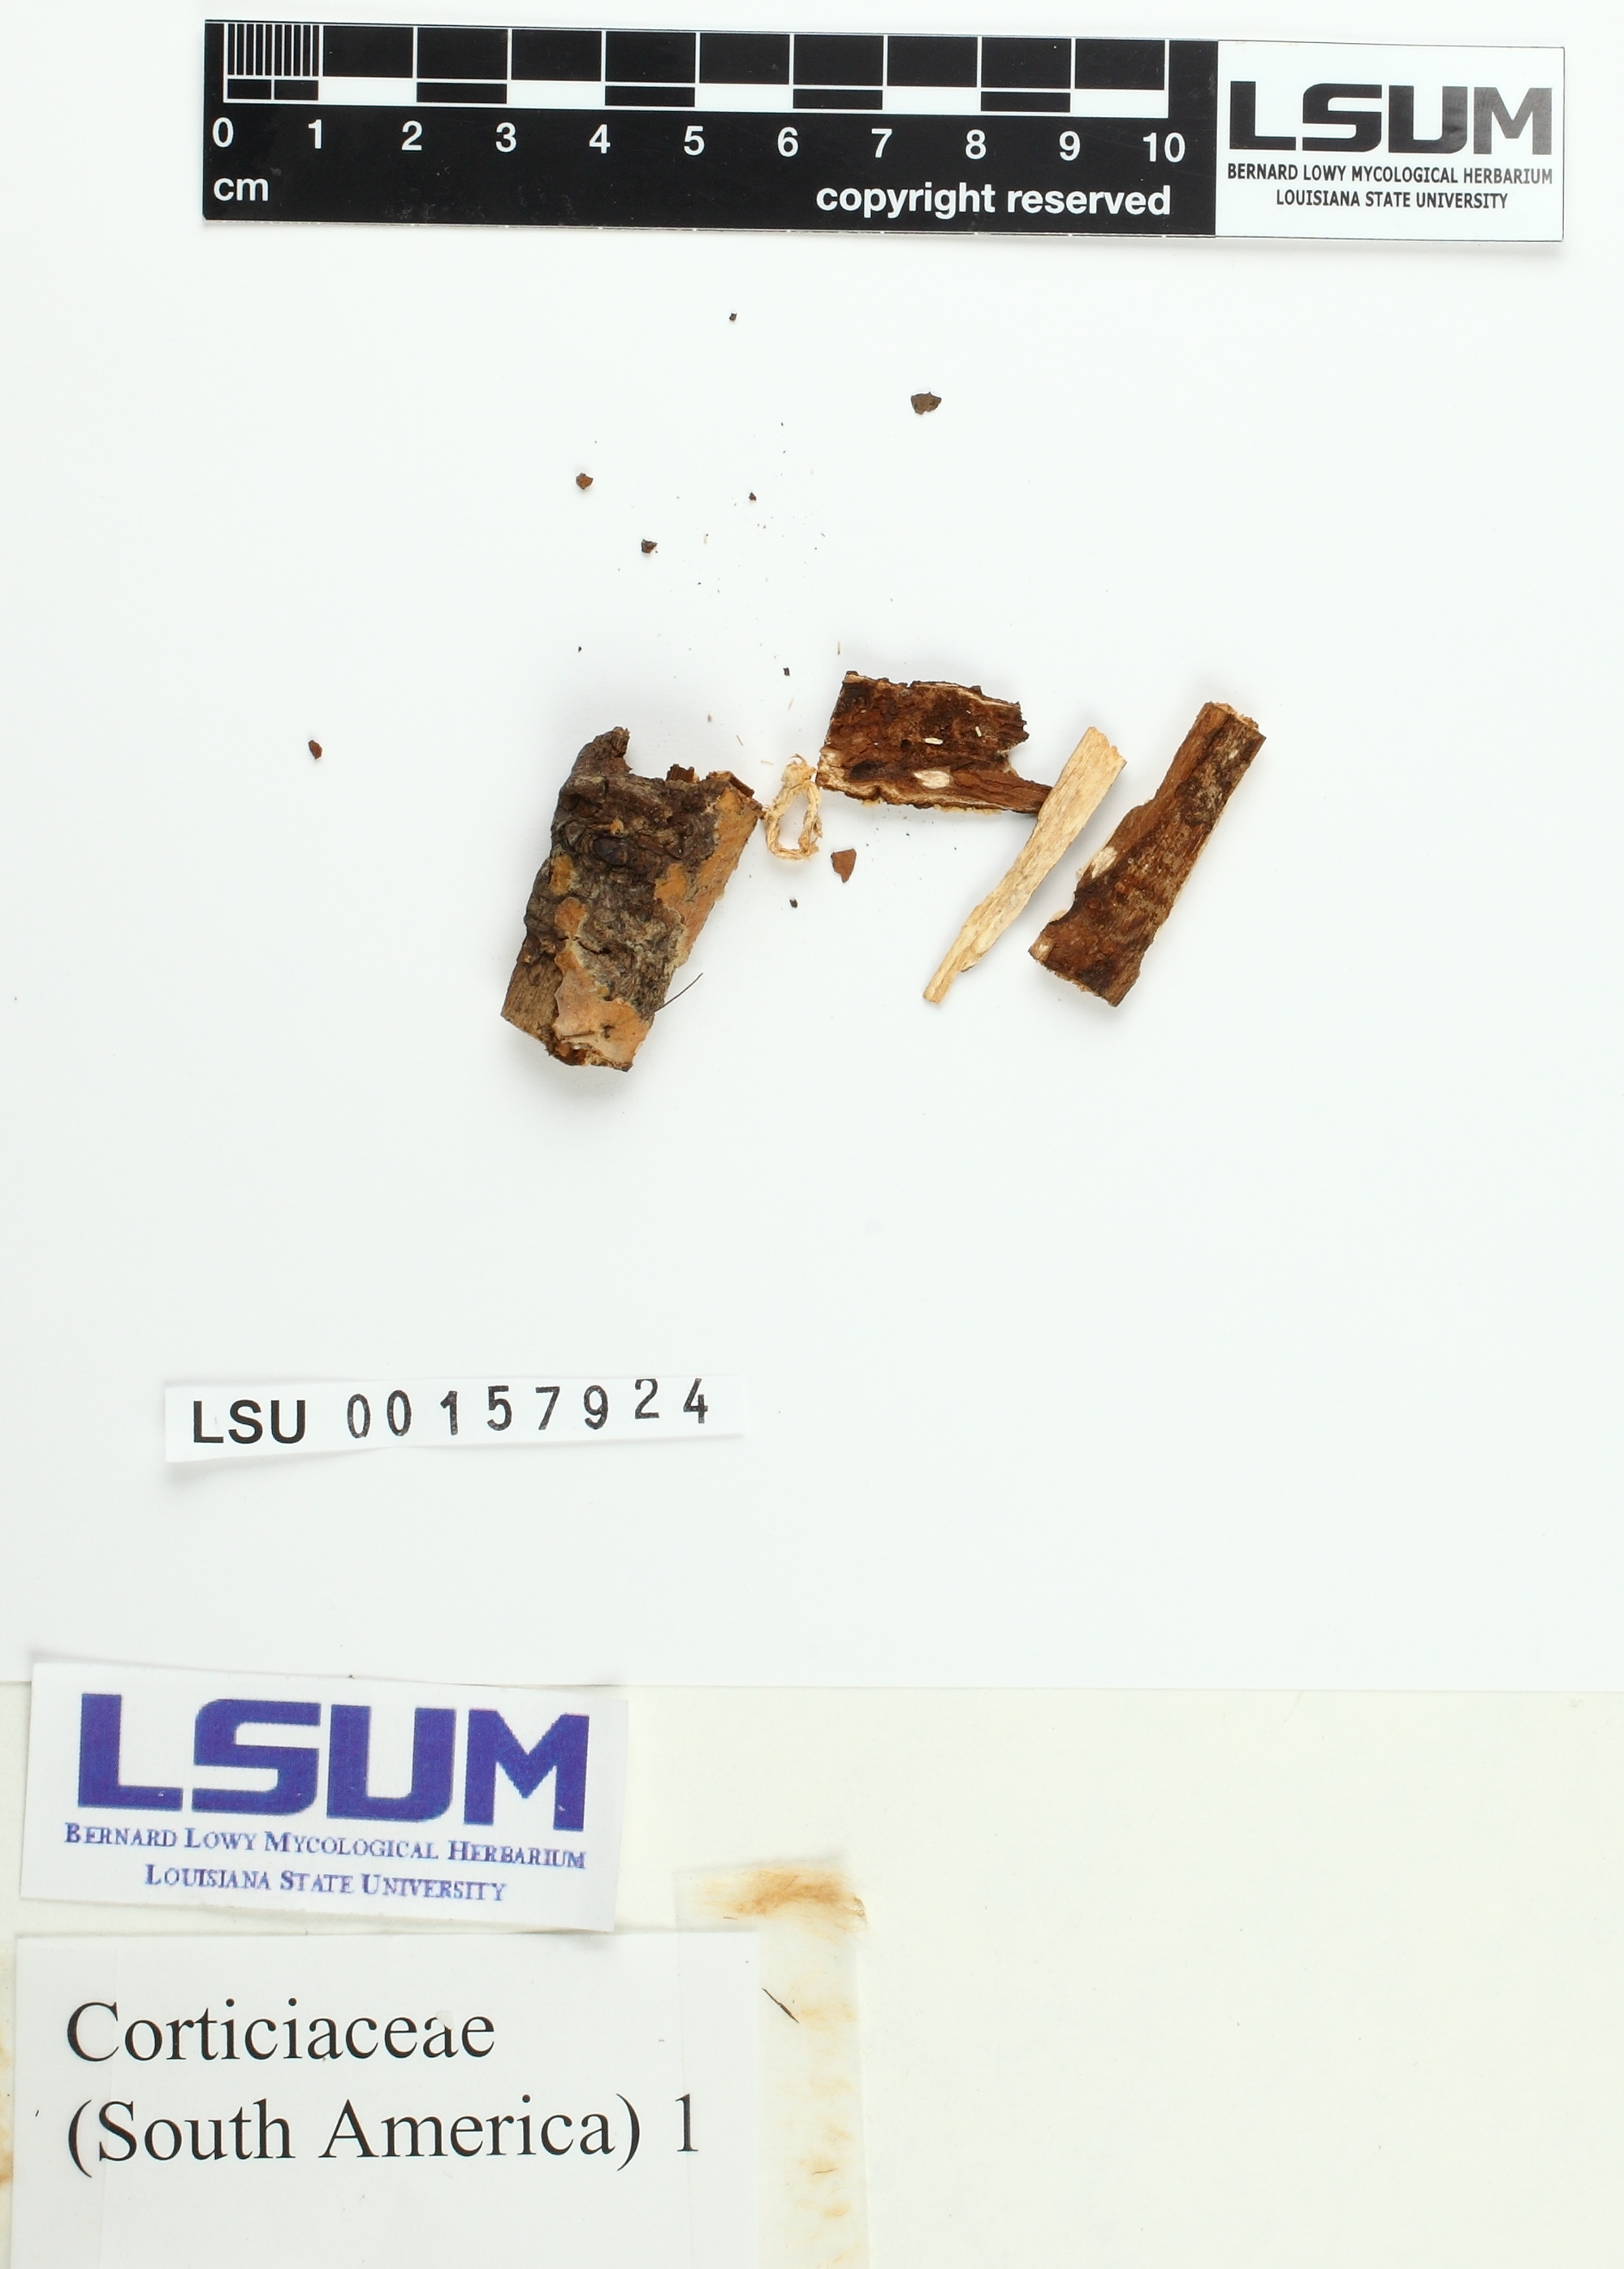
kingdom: Fungi
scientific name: Fungi
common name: Fungi
